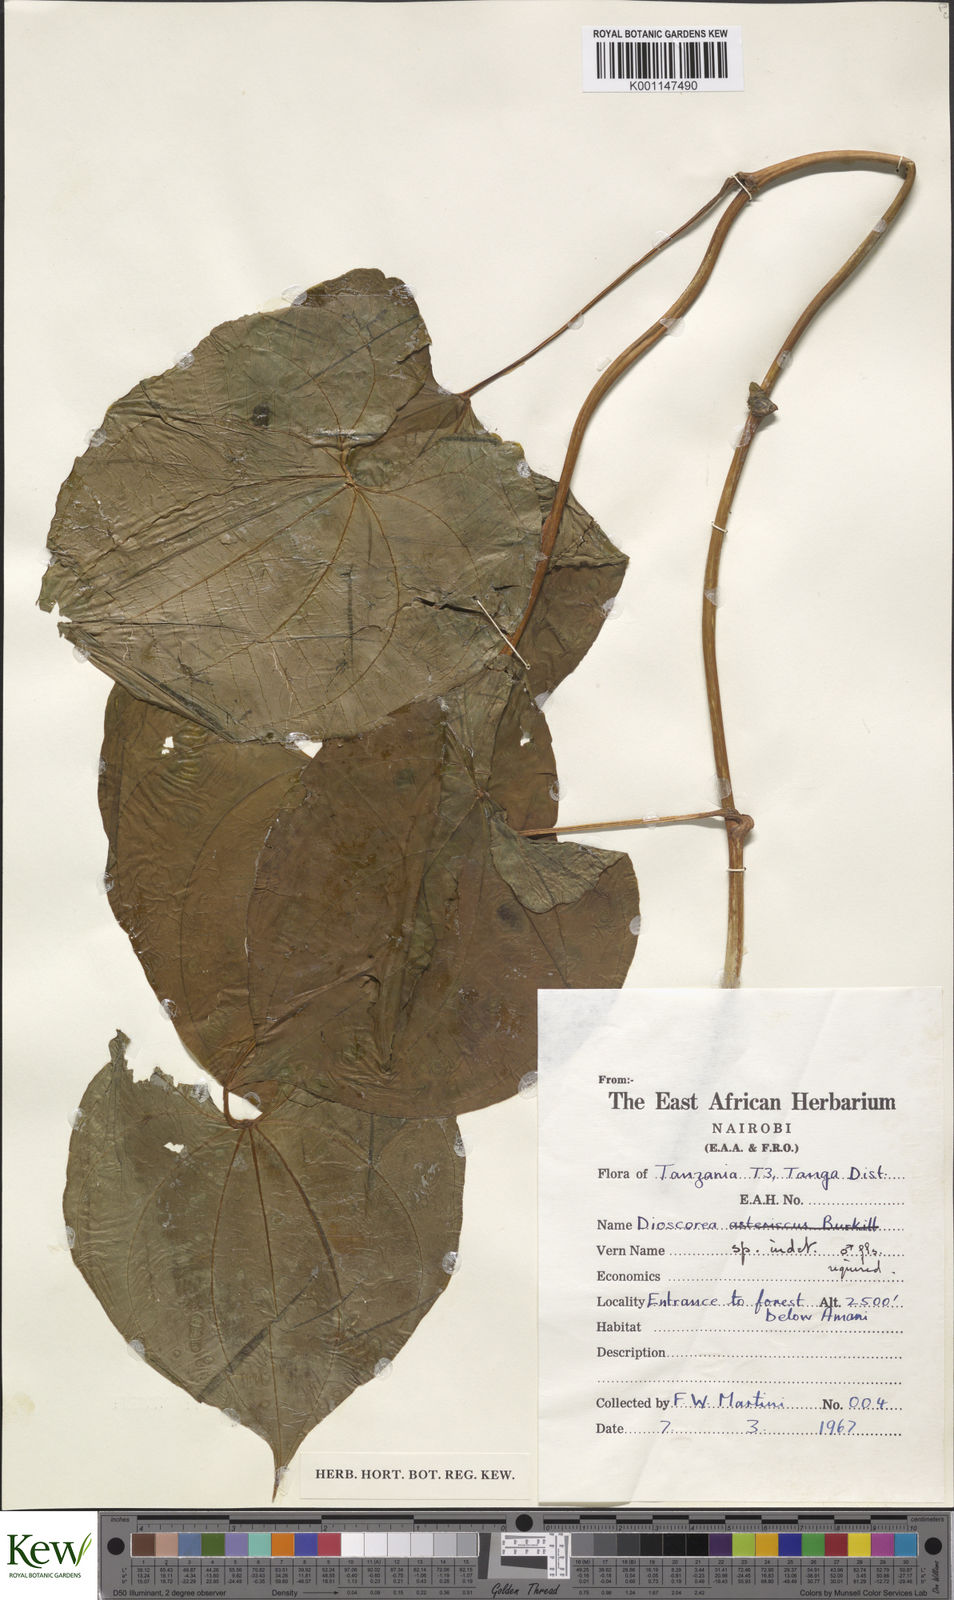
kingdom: Plantae
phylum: Tracheophyta
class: Liliopsida
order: Dioscoreales
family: Dioscoreaceae
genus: Dioscorea
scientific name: Dioscorea
